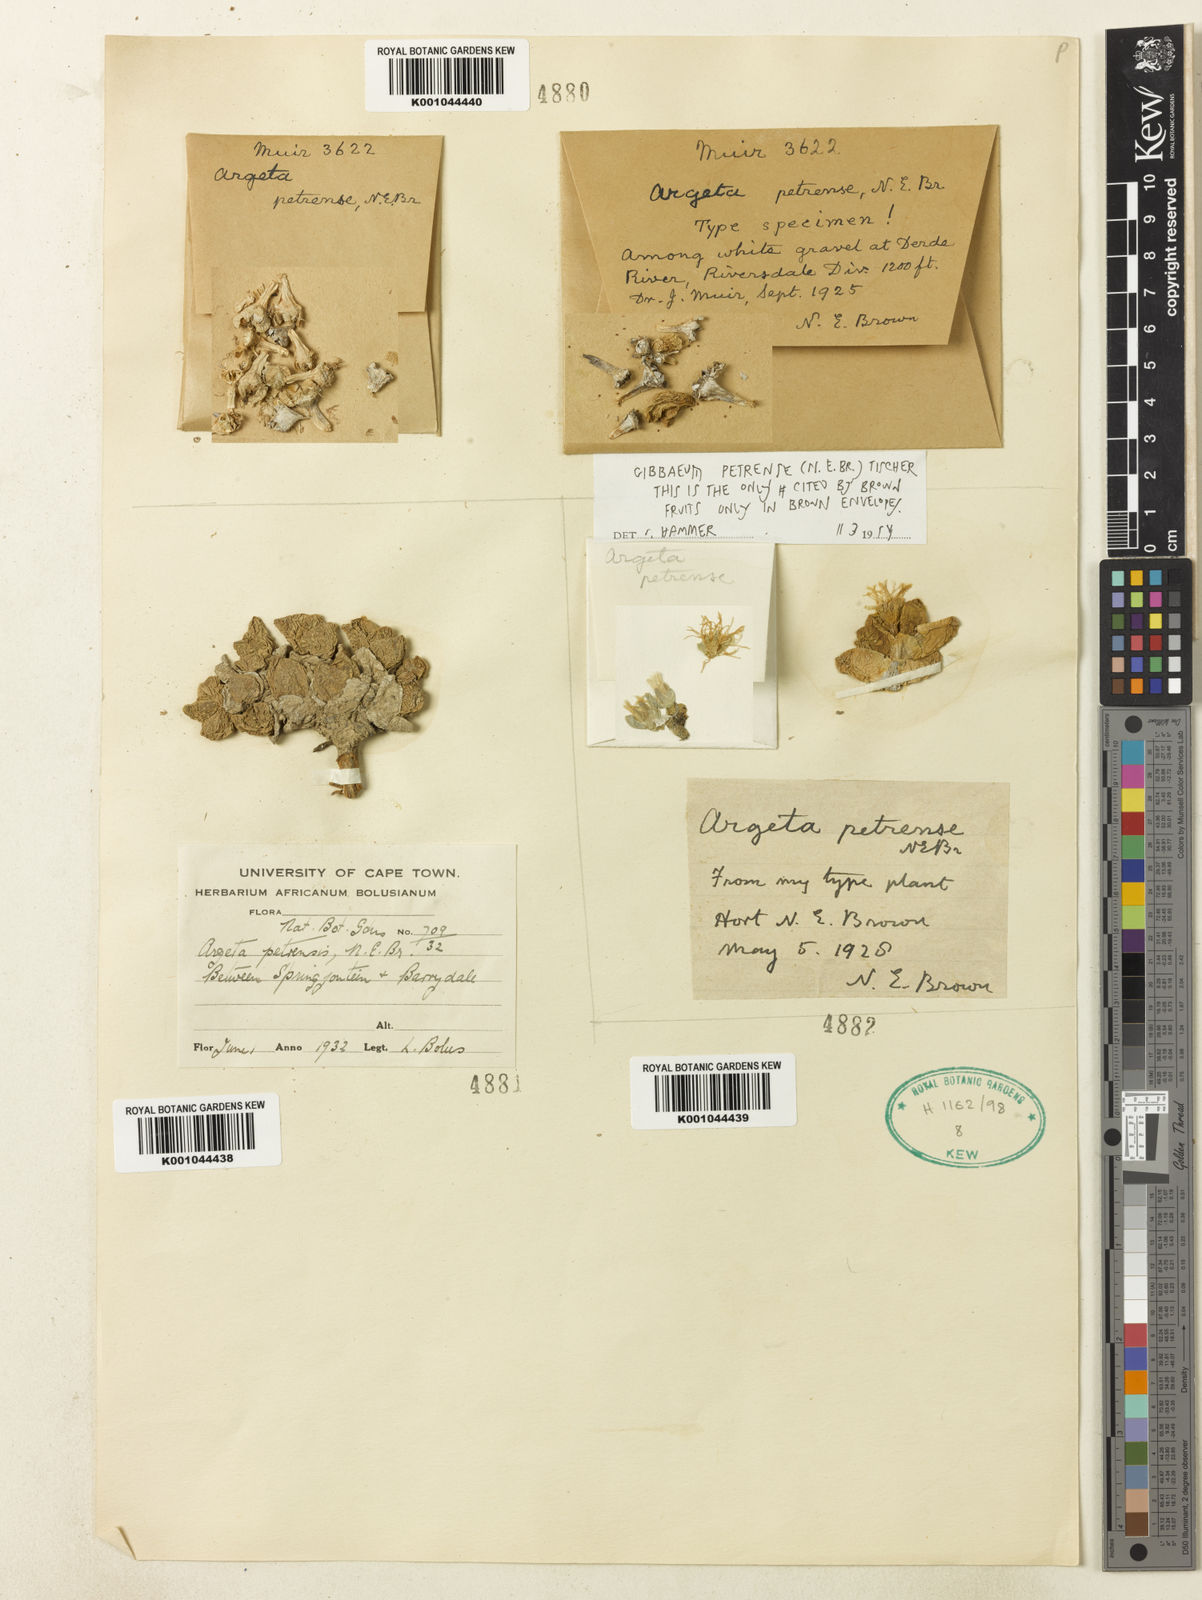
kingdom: Plantae
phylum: Tracheophyta
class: Magnoliopsida
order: Caryophyllales
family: Aizoaceae
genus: Gibbaeum
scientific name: Gibbaeum petrense
